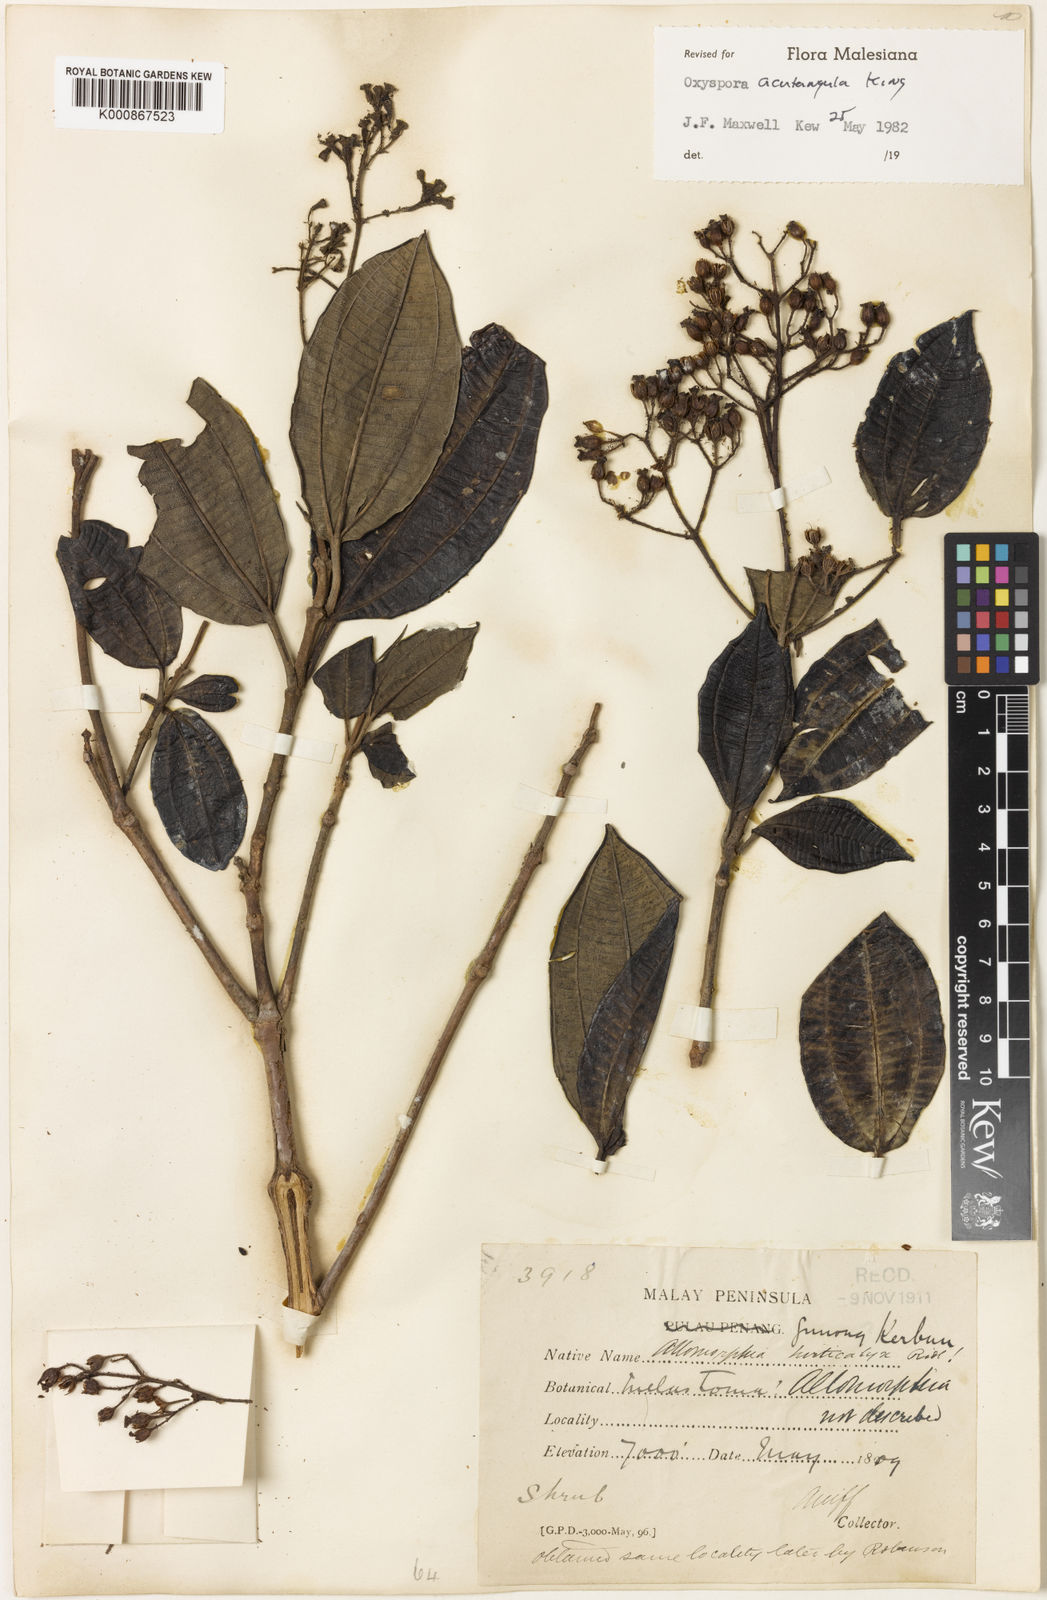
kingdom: Plantae
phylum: Tracheophyta
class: Magnoliopsida
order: Myrtales
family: Melastomataceae
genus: Allomorphia
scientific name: Allomorphia acutangula
